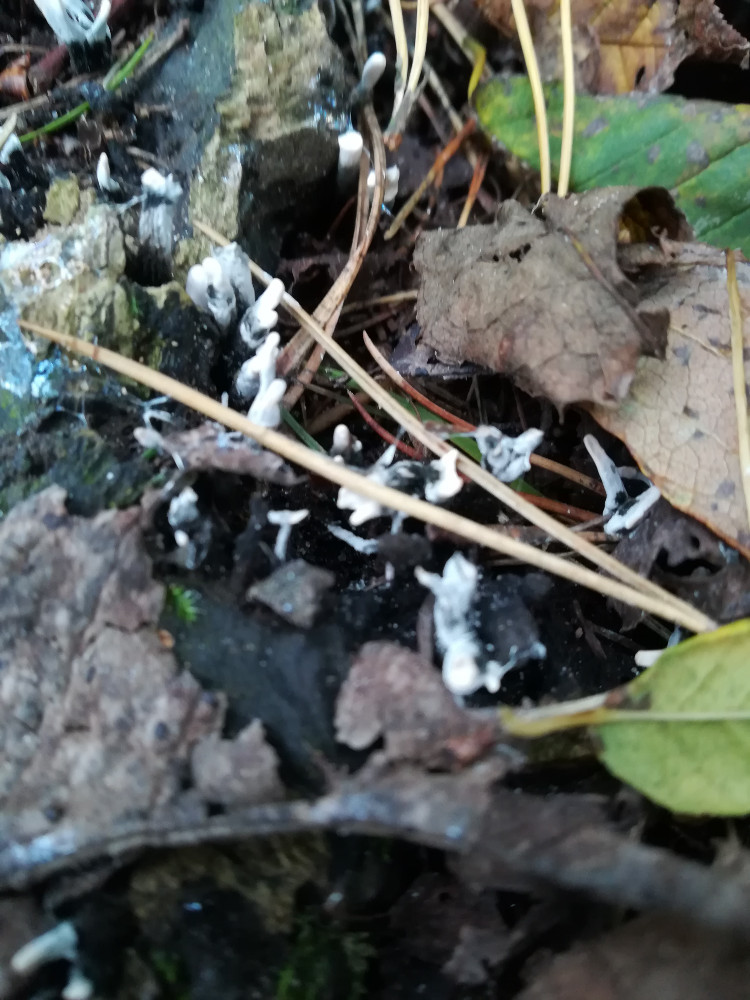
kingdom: Fungi
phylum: Ascomycota
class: Sordariomycetes
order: Xylariales
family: Xylariaceae
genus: Xylaria
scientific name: Xylaria hypoxylon
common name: grenet stødsvamp
